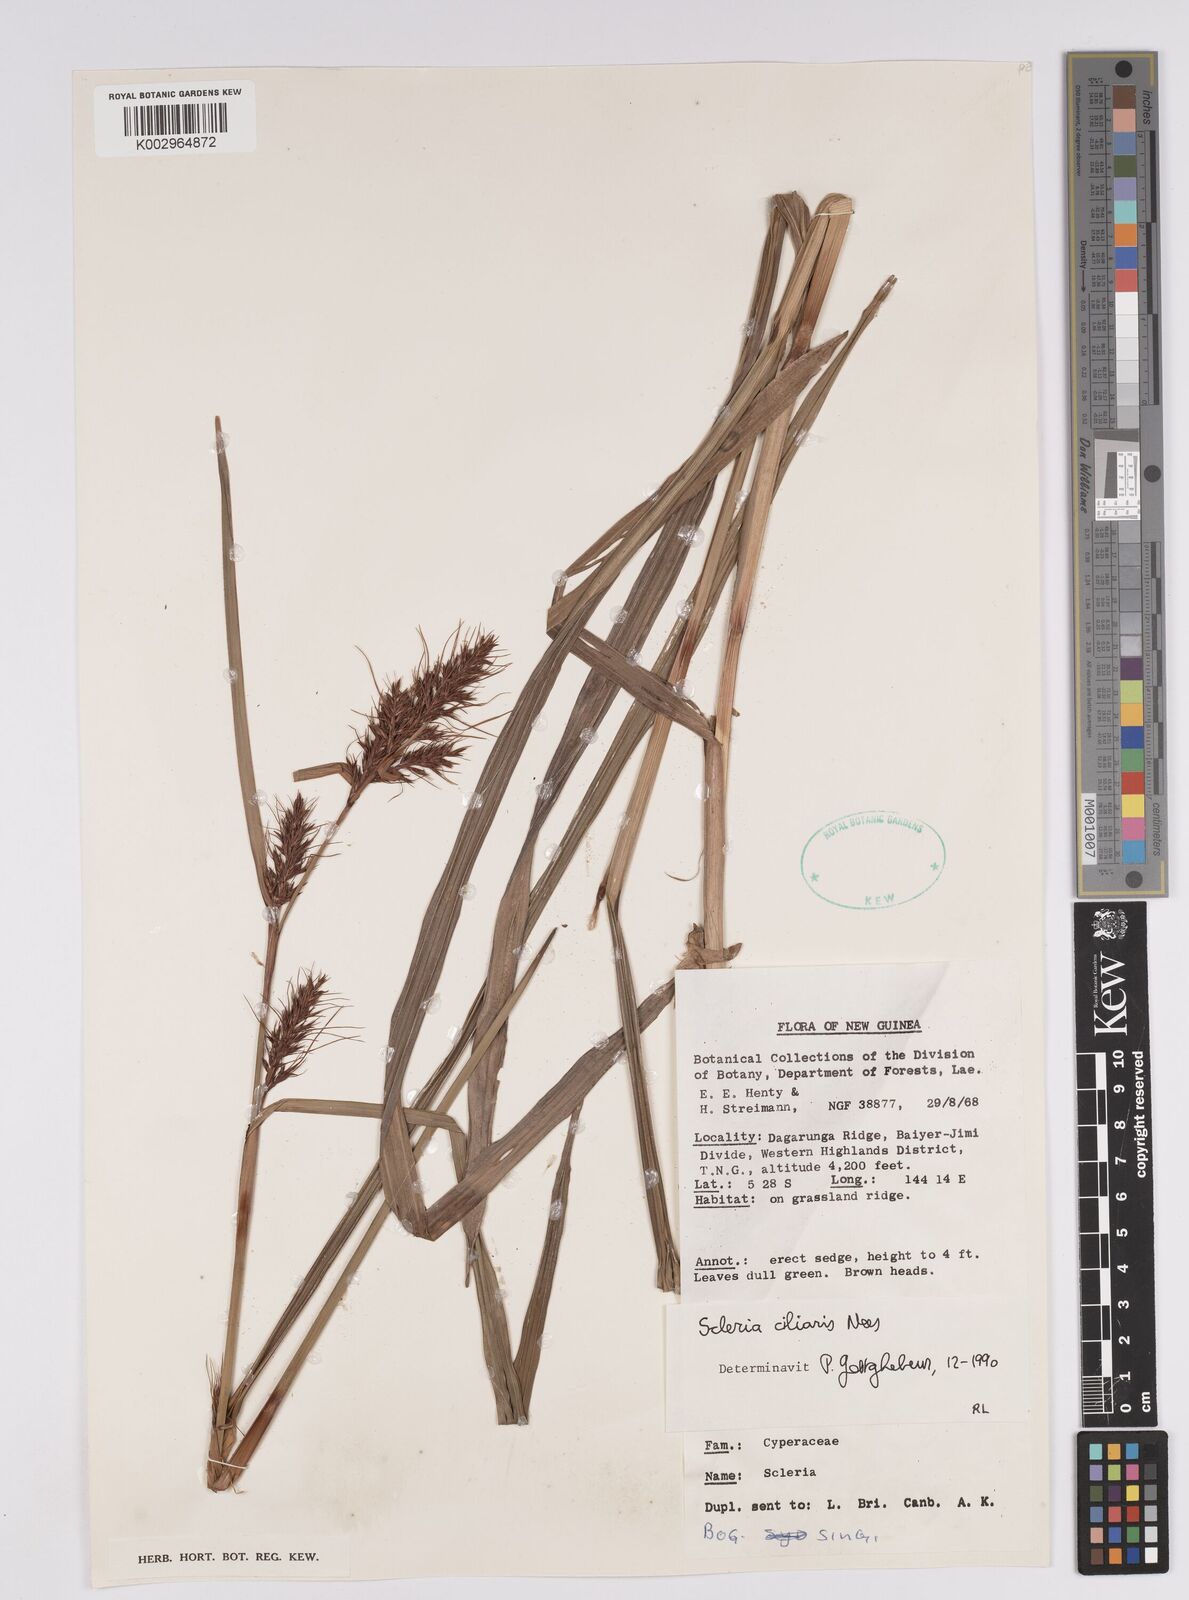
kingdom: Plantae
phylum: Tracheophyta
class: Liliopsida
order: Poales
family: Cyperaceae
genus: Scleria
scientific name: Scleria ciliaris
